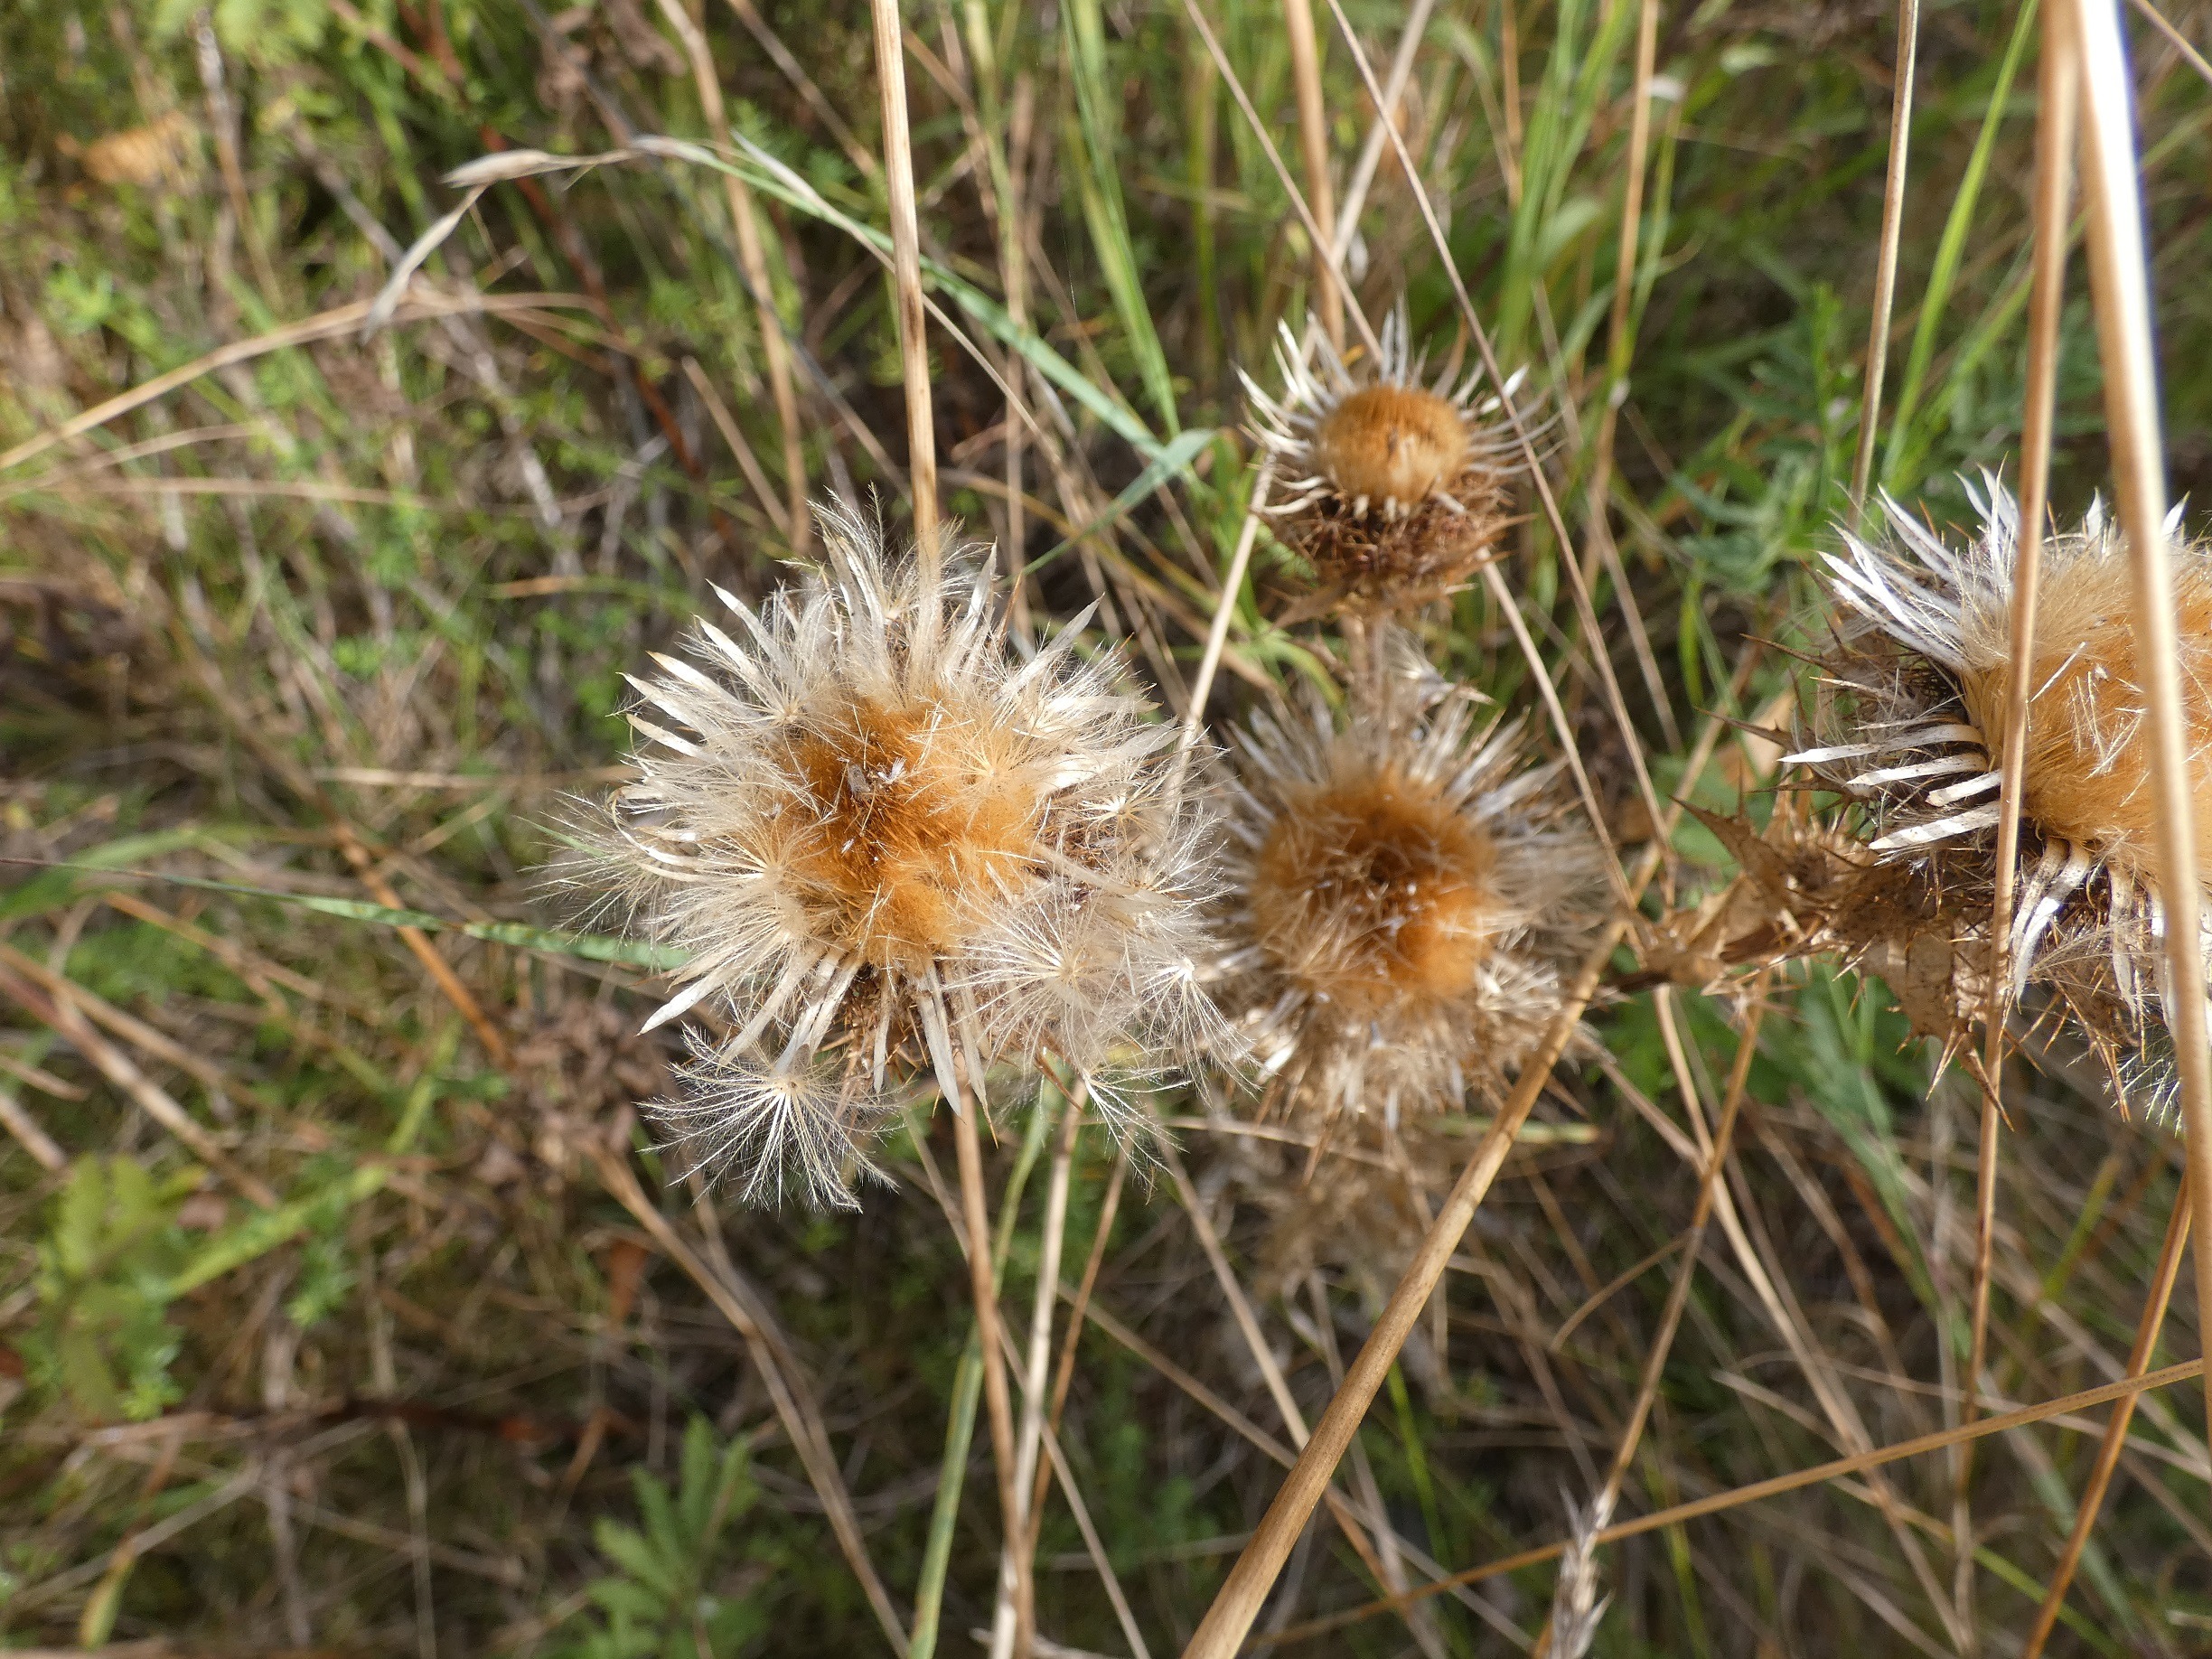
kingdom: Plantae
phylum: Tracheophyta
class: Magnoliopsida
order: Asterales
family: Asteraceae
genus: Carlina
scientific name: Carlina vulgaris
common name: Bakketidsel
